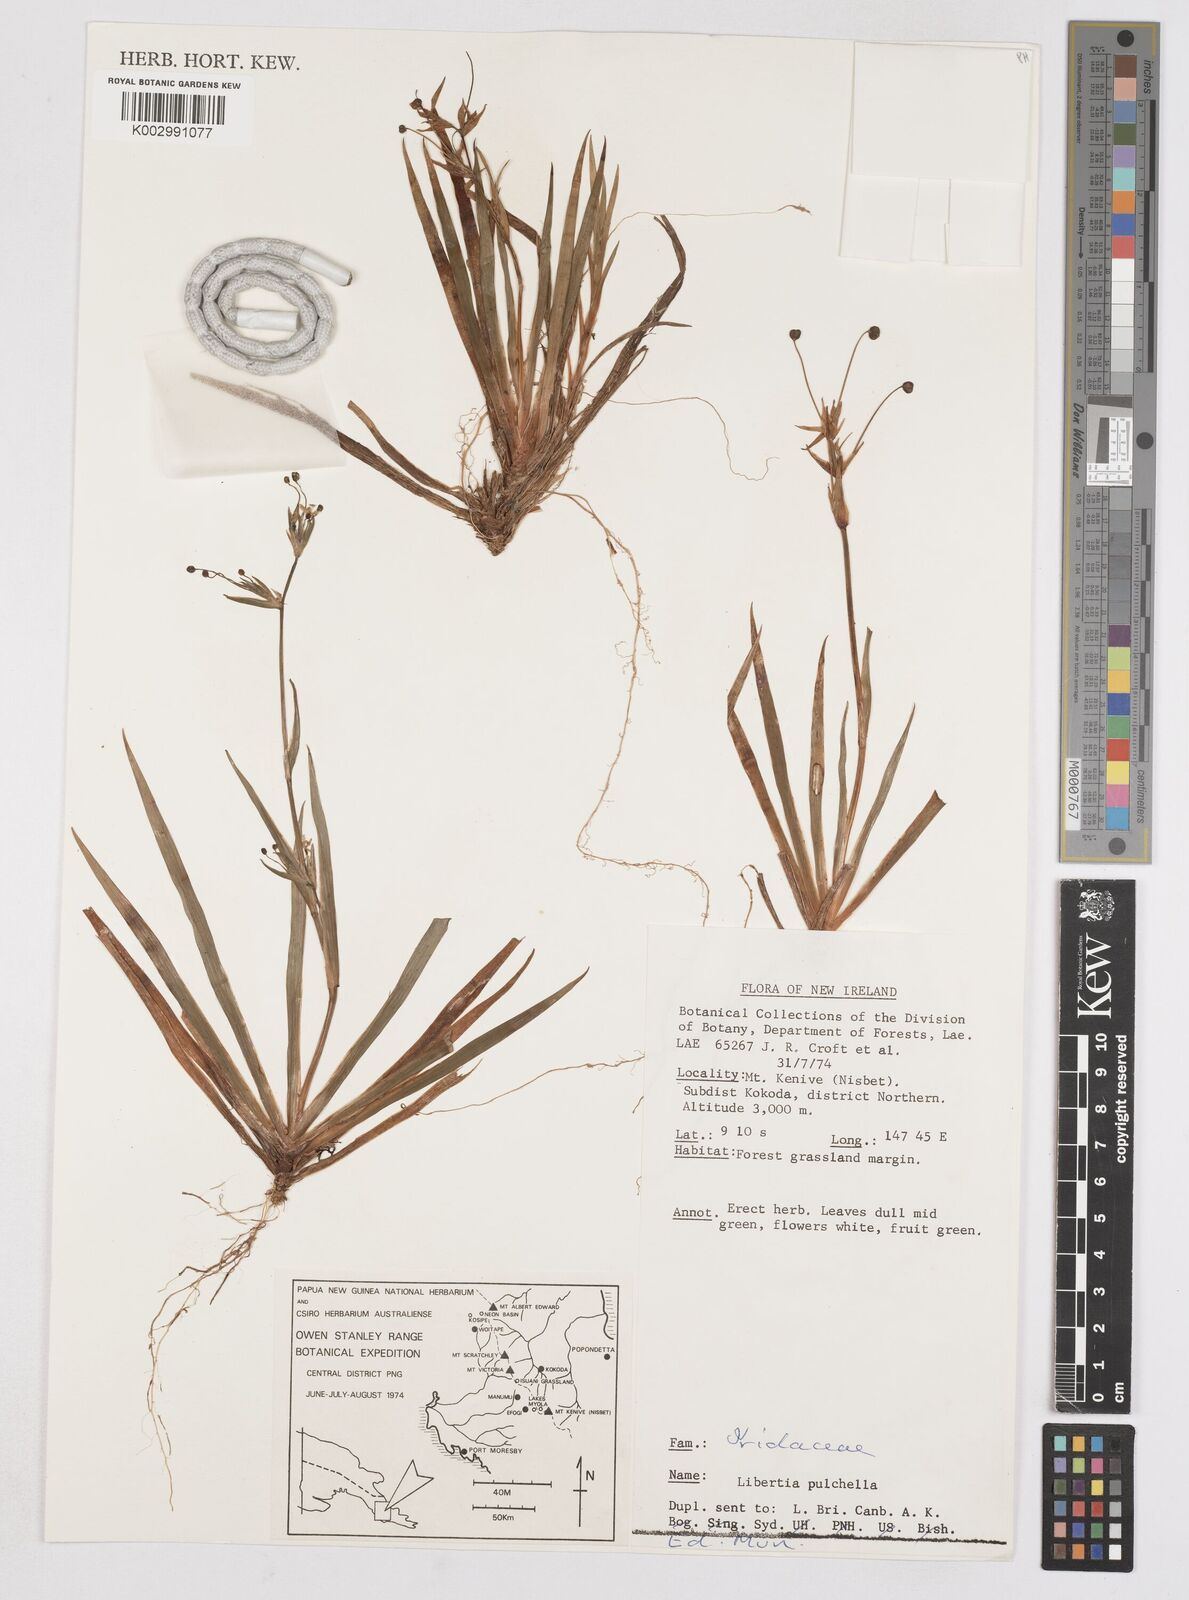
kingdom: Plantae
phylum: Tracheophyta
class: Liliopsida
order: Asparagales
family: Iridaceae
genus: Libertia
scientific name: Libertia pulchella
